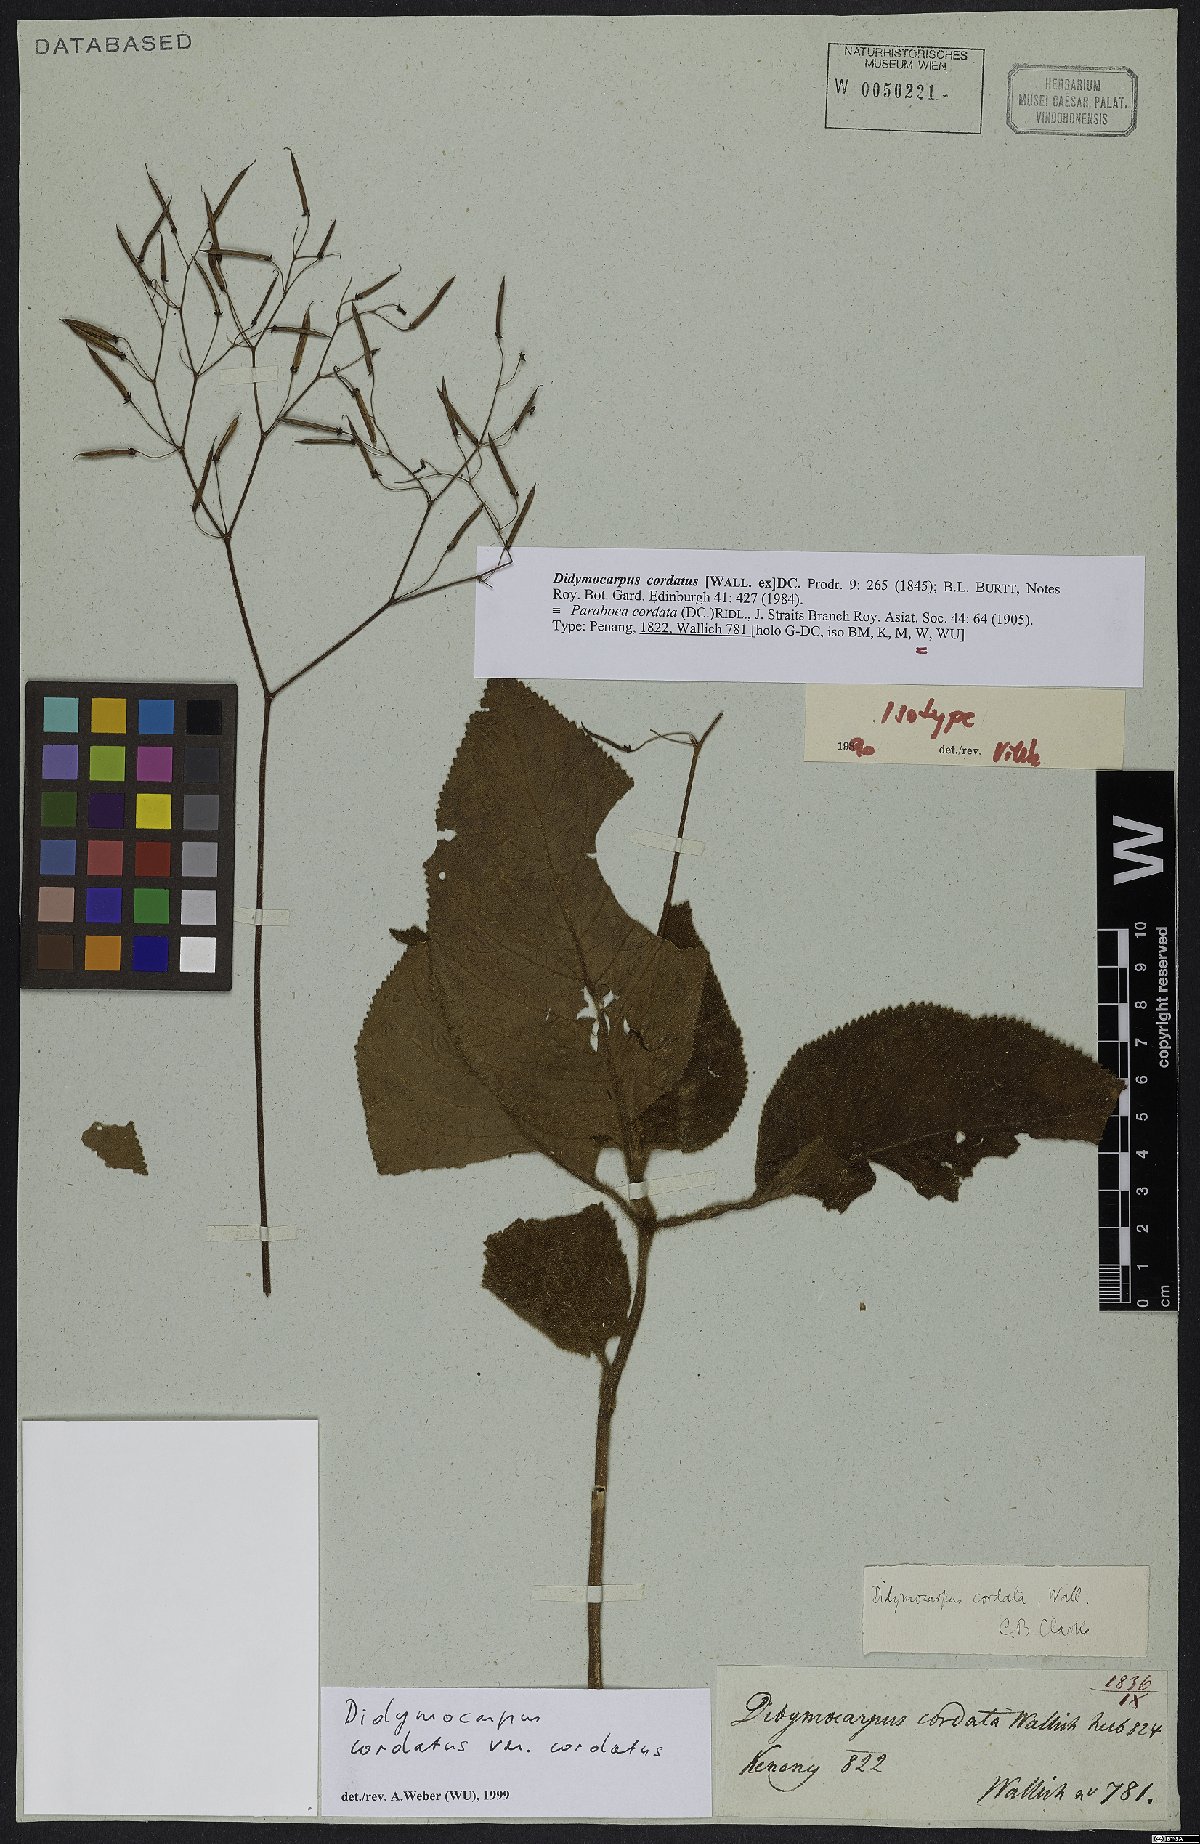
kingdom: Plantae
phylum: Tracheophyta
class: Magnoliopsida
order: Lamiales
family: Gesneriaceae
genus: Didymocarpus
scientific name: Didymocarpus cordatus
